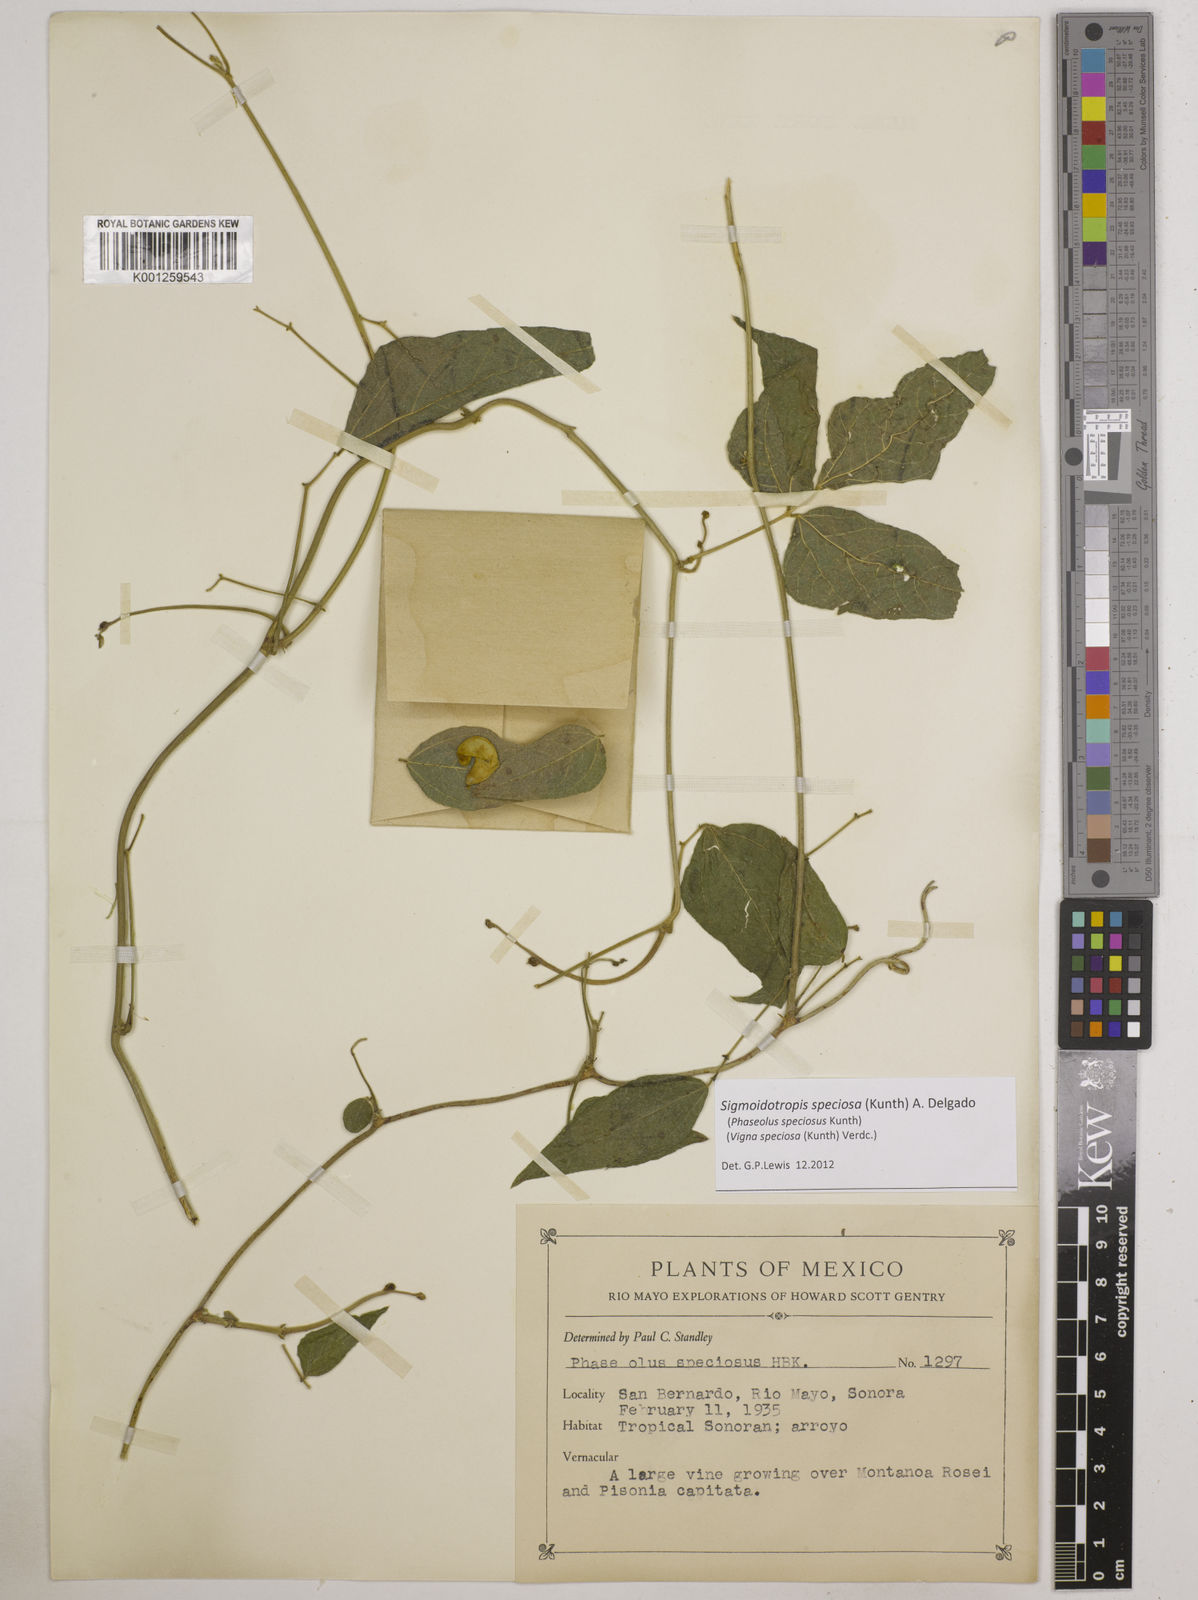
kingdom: Plantae
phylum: Tracheophyta
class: Magnoliopsida
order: Fabales
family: Fabaceae
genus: Sigmoidotropis
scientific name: Sigmoidotropis speciosa
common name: Snail flower
